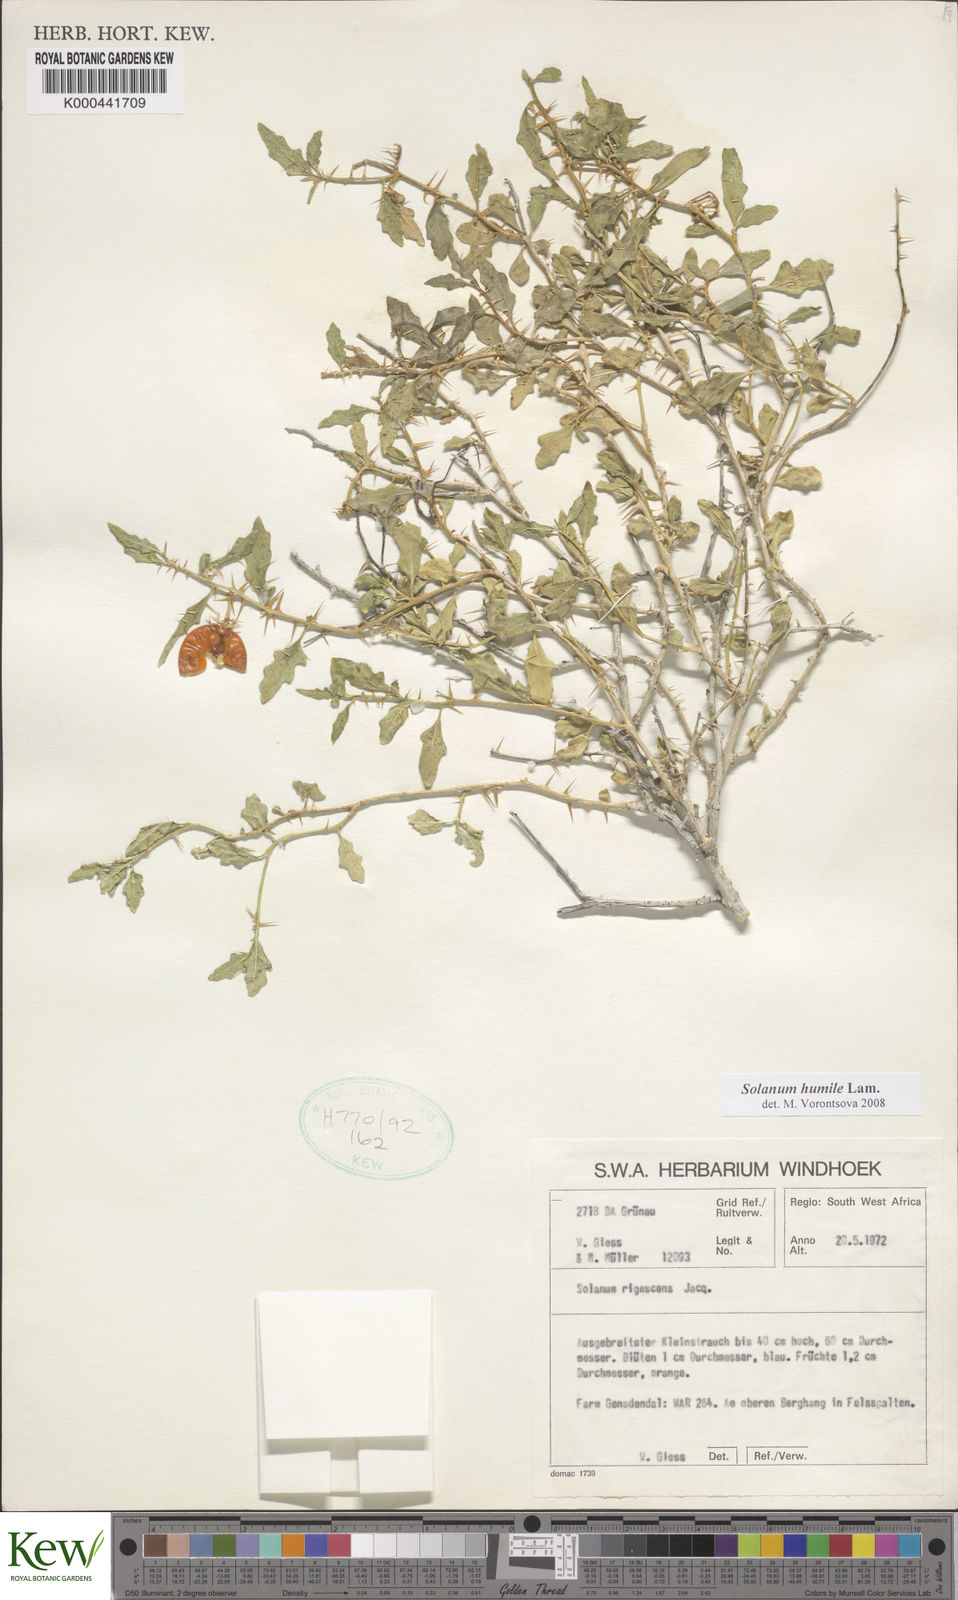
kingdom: Plantae
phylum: Tracheophyta
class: Magnoliopsida
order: Solanales
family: Solanaceae
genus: Solanum
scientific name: Solanum humile
